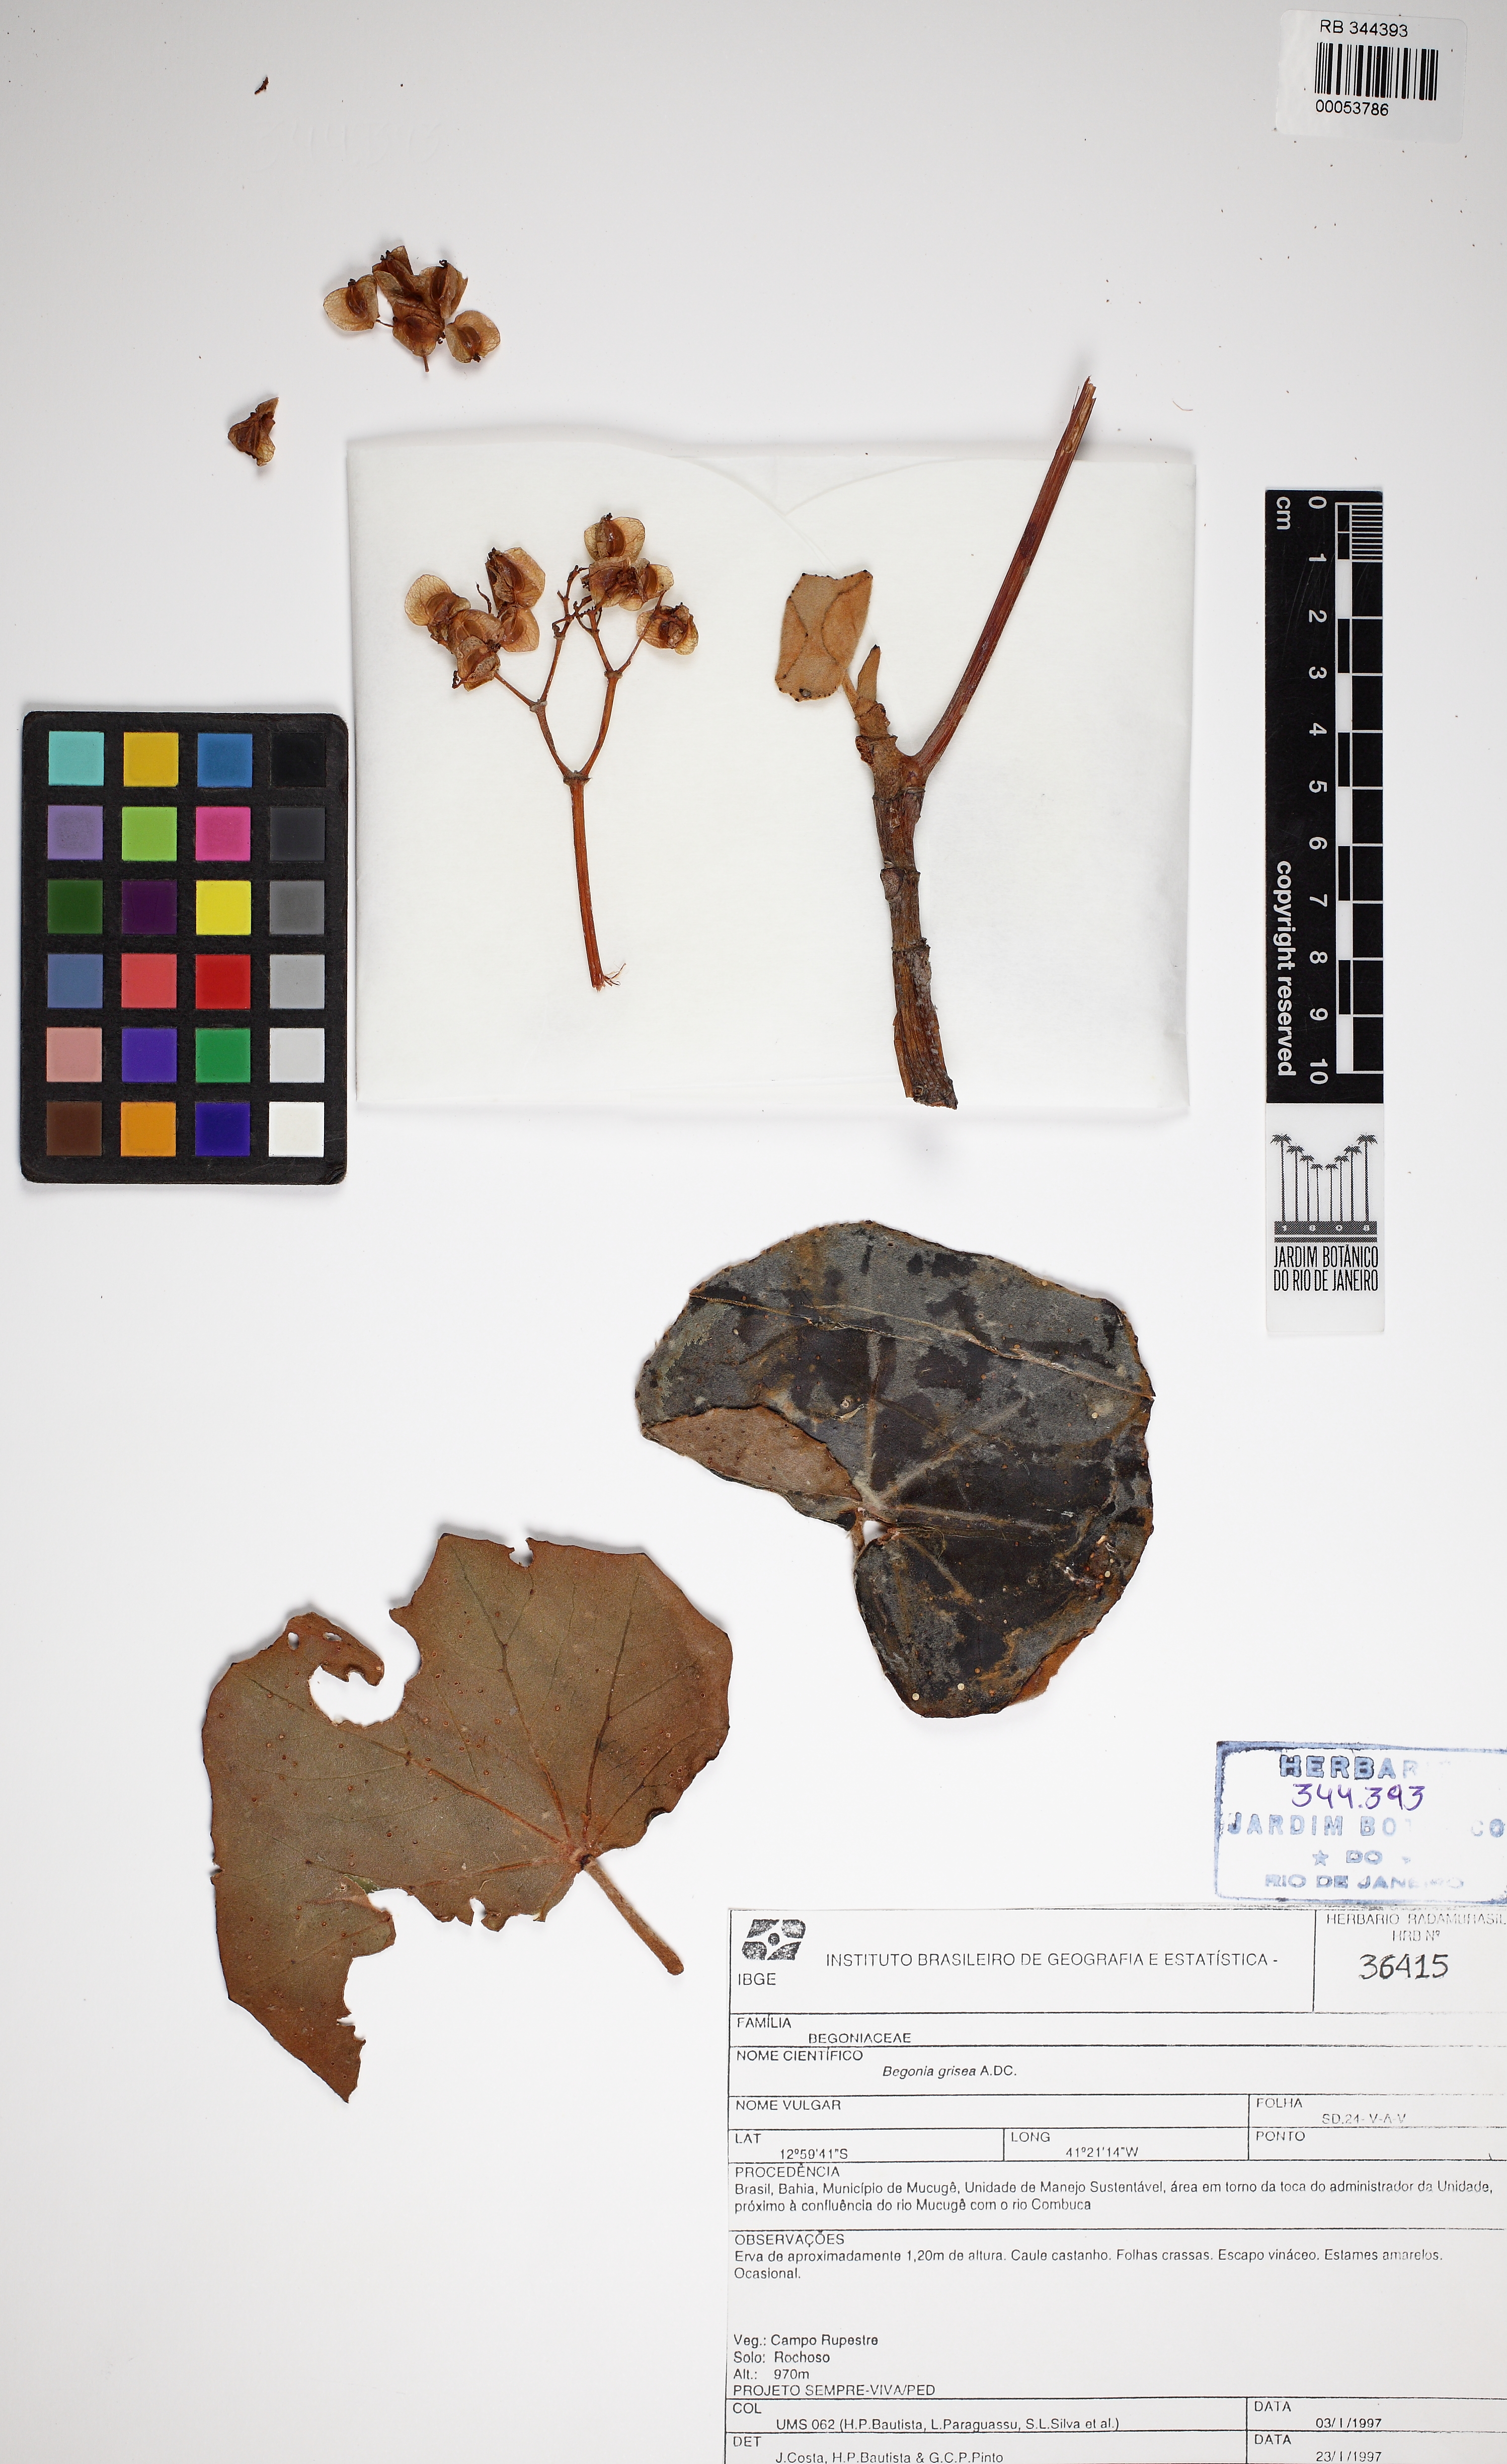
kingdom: Plantae
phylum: Tracheophyta
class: Magnoliopsida
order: Cucurbitales
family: Begoniaceae
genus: Begonia
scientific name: Begonia grisea
